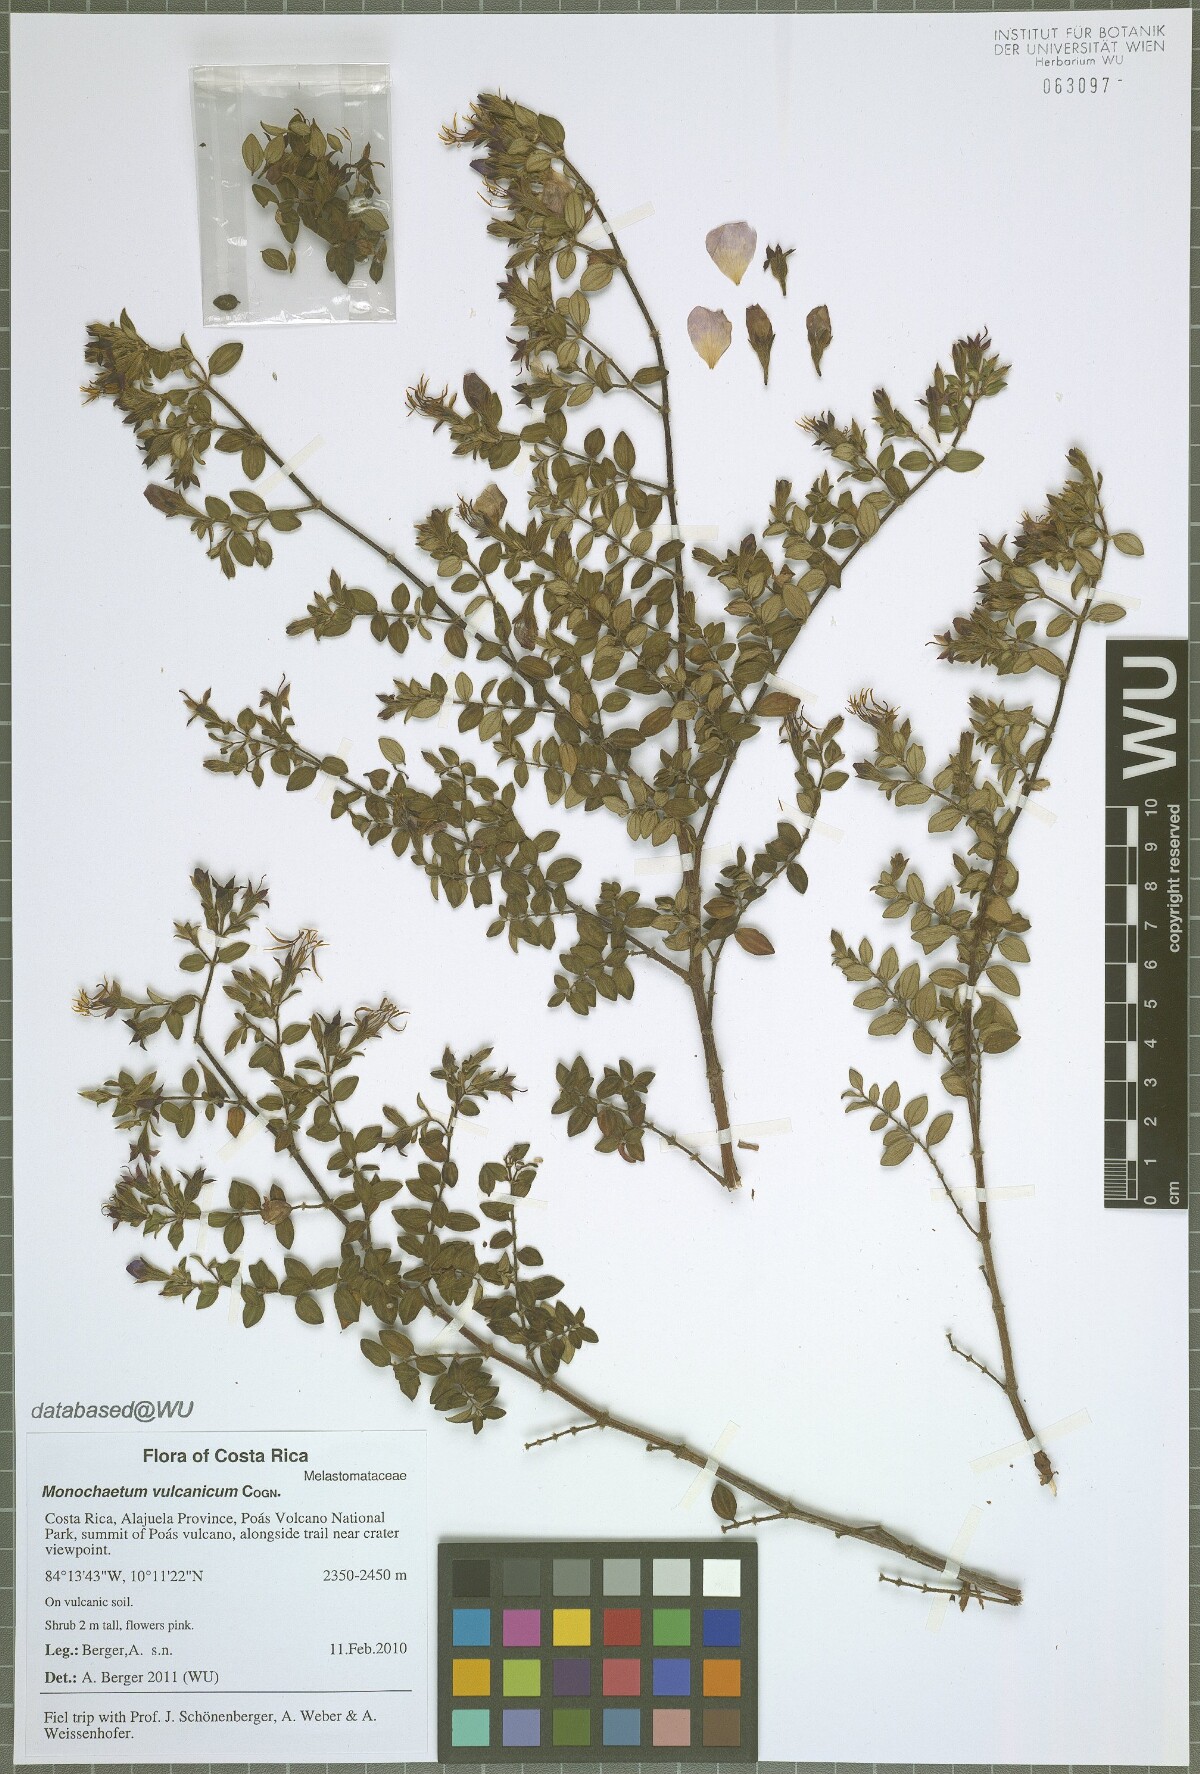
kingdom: Plantae
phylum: Tracheophyta
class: Magnoliopsida
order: Myrtales
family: Melastomataceae
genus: Monochaetum
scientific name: Monochaetum vulcanicum
